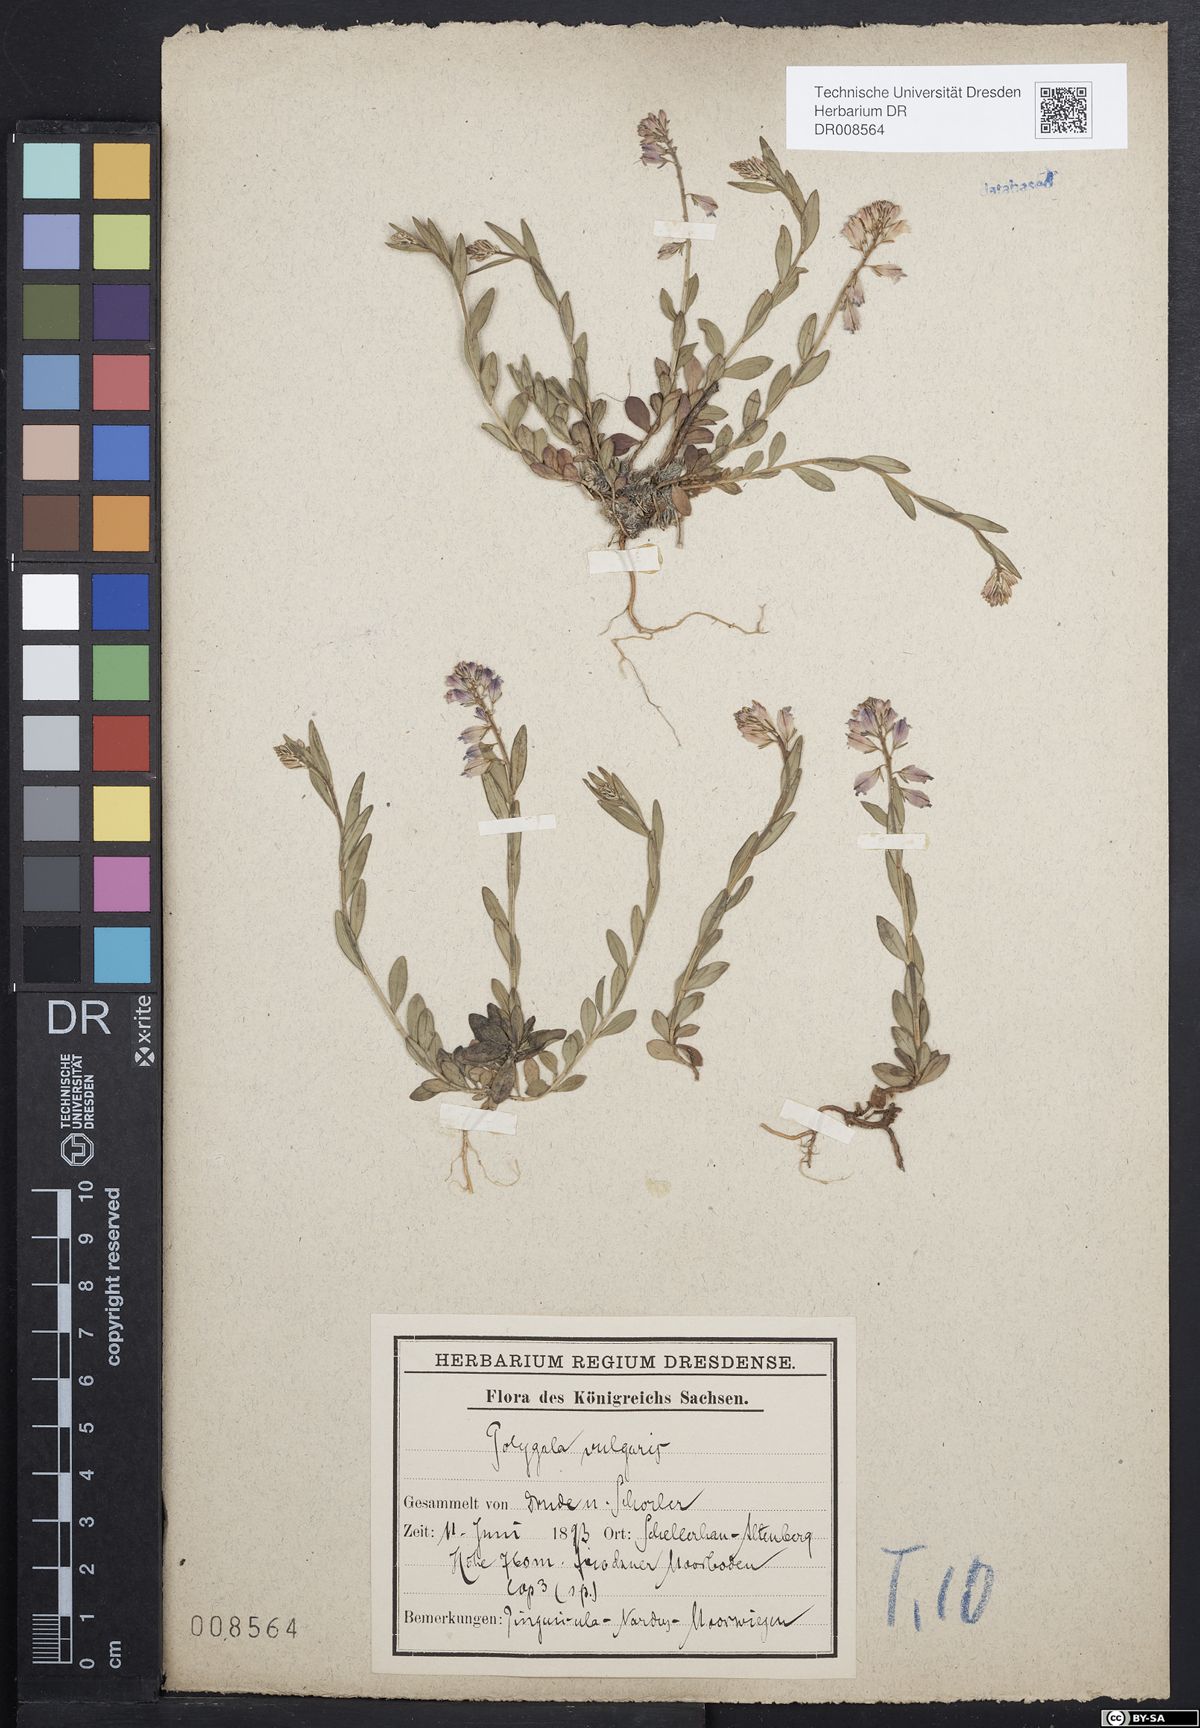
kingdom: Plantae
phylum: Tracheophyta
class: Magnoliopsida
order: Fabales
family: Polygalaceae
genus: Polygala
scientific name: Polygala vulgaris
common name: Common milkwort
